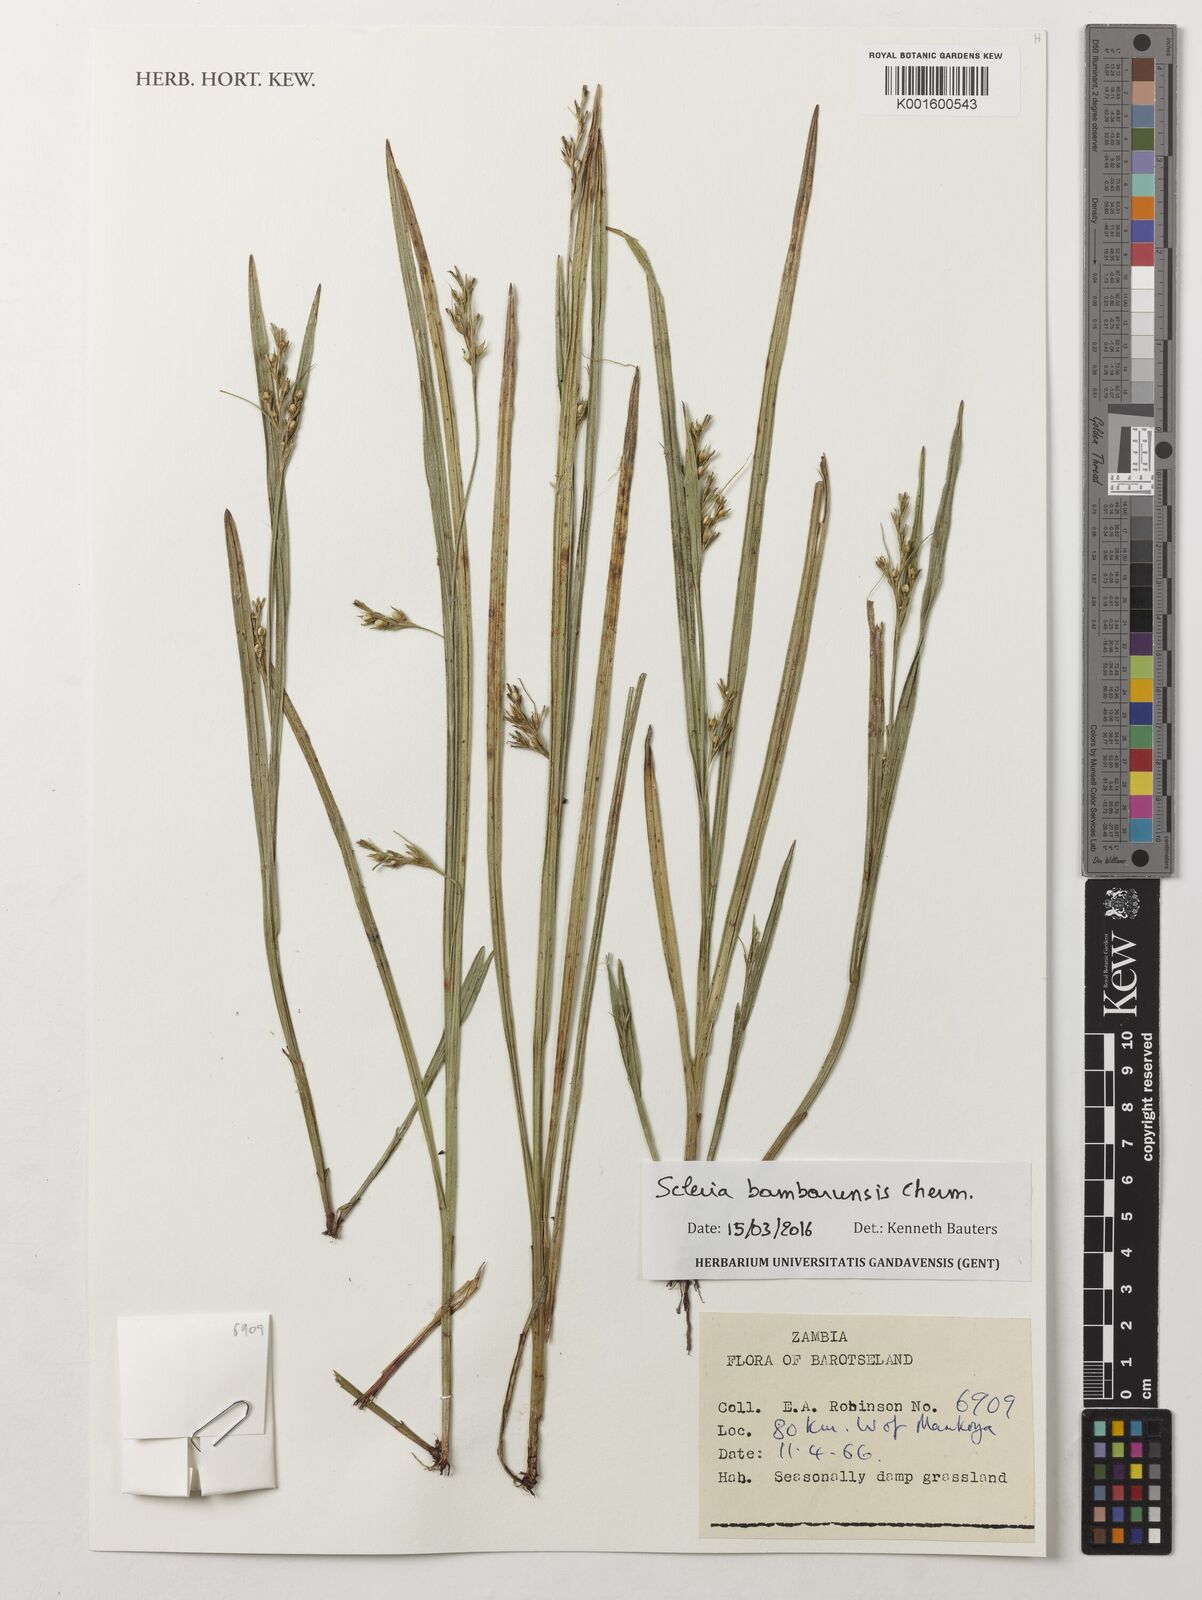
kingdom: Plantae
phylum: Tracheophyta
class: Liliopsida
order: Poales
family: Cyperaceae
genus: Scleria
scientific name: Scleria bambariensis
